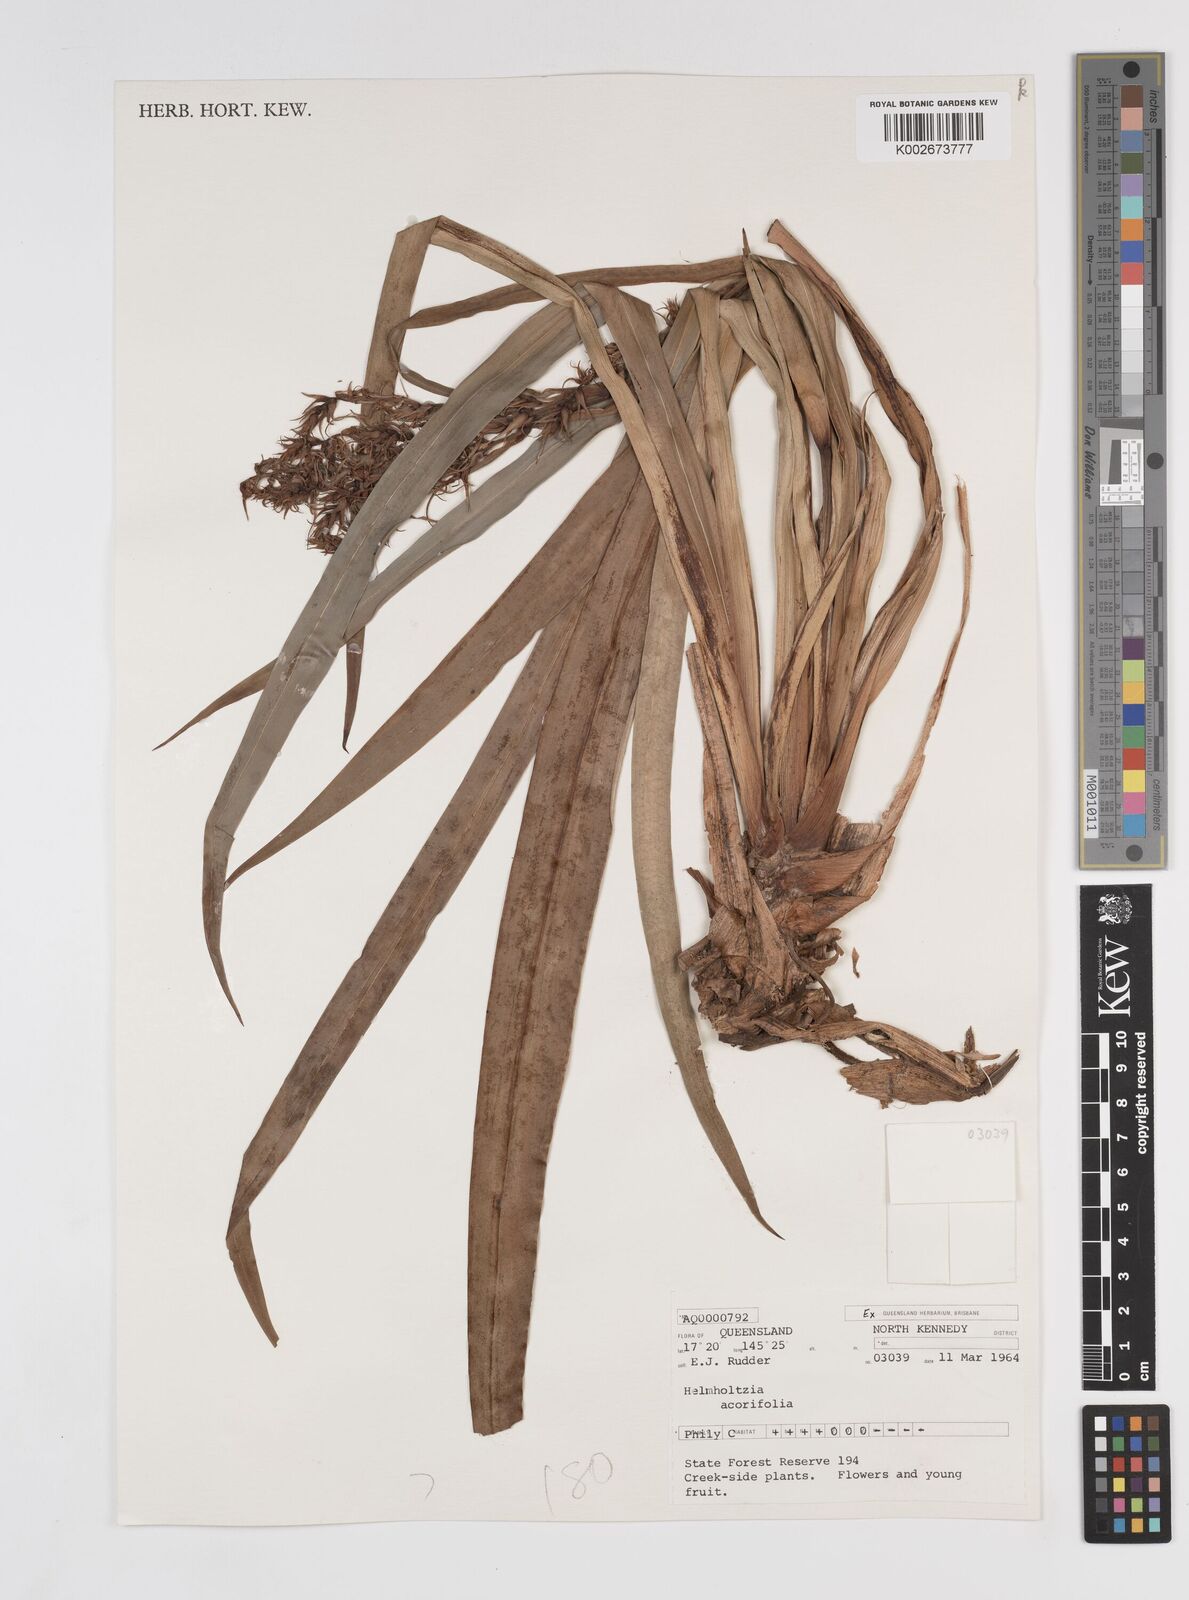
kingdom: Plantae
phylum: Tracheophyta
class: Liliopsida
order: Commelinales
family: Philydraceae
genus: Helmholtzia
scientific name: Helmholtzia acorifolia
